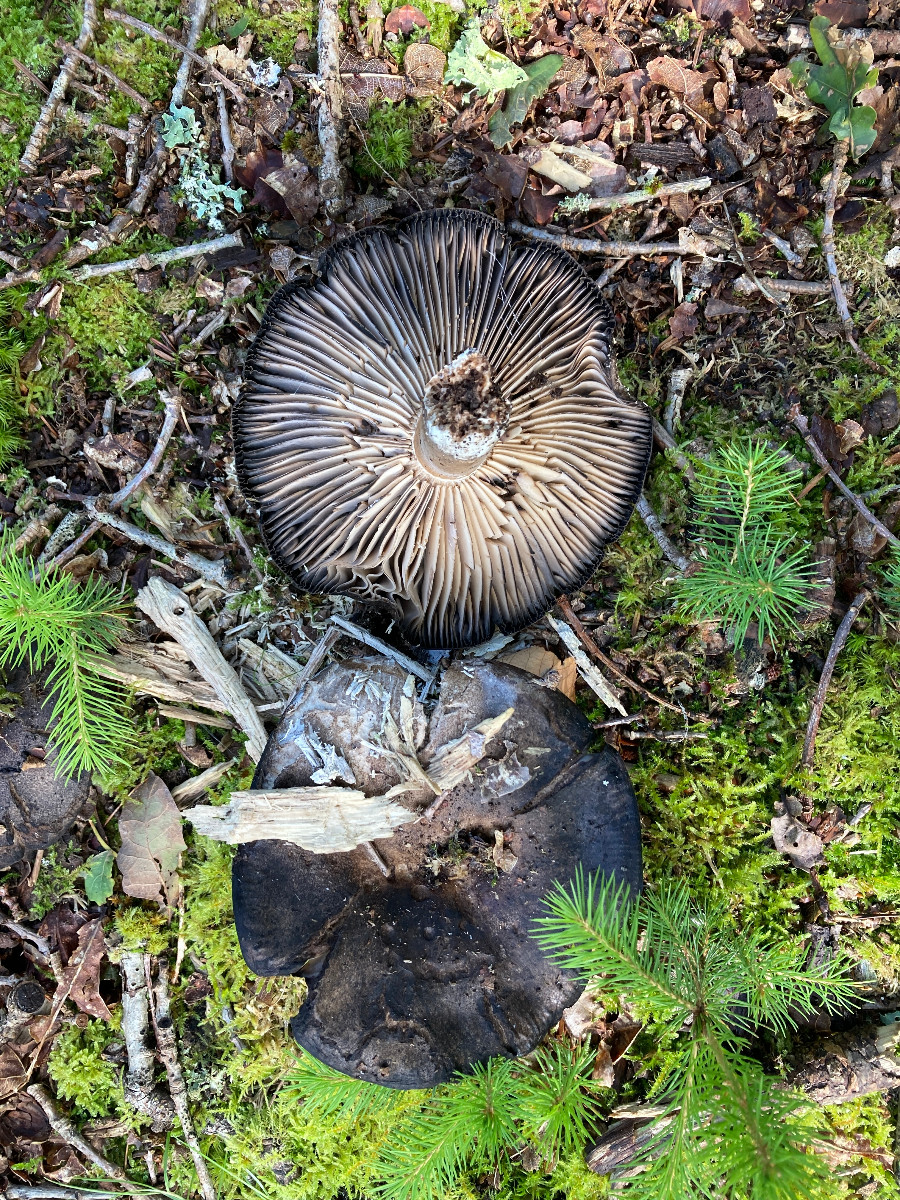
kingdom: Fungi
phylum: Basidiomycota
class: Agaricomycetes
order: Russulales
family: Russulaceae
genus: Russula
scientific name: Russula adusta
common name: sværtende skørhat
